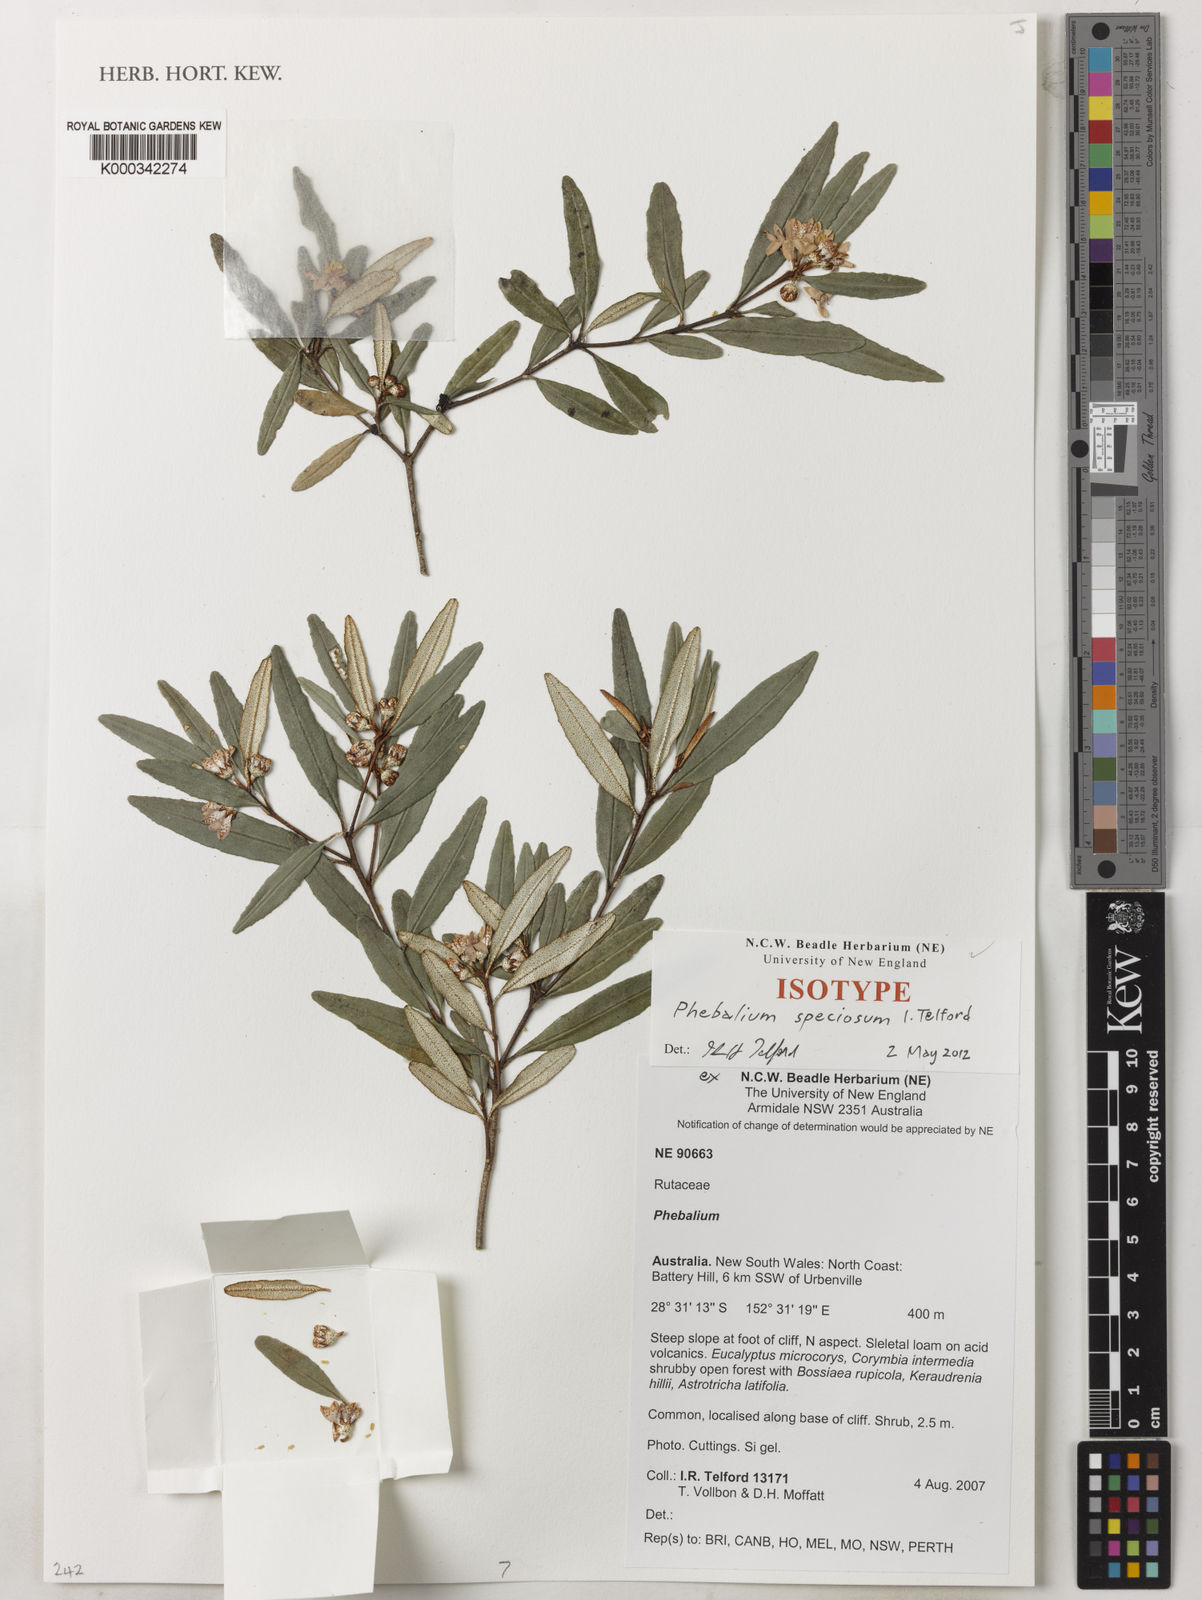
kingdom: Plantae
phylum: Tracheophyta
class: Magnoliopsida
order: Sapindales
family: Rutaceae
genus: Phebalium
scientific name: Phebalium speciosum
